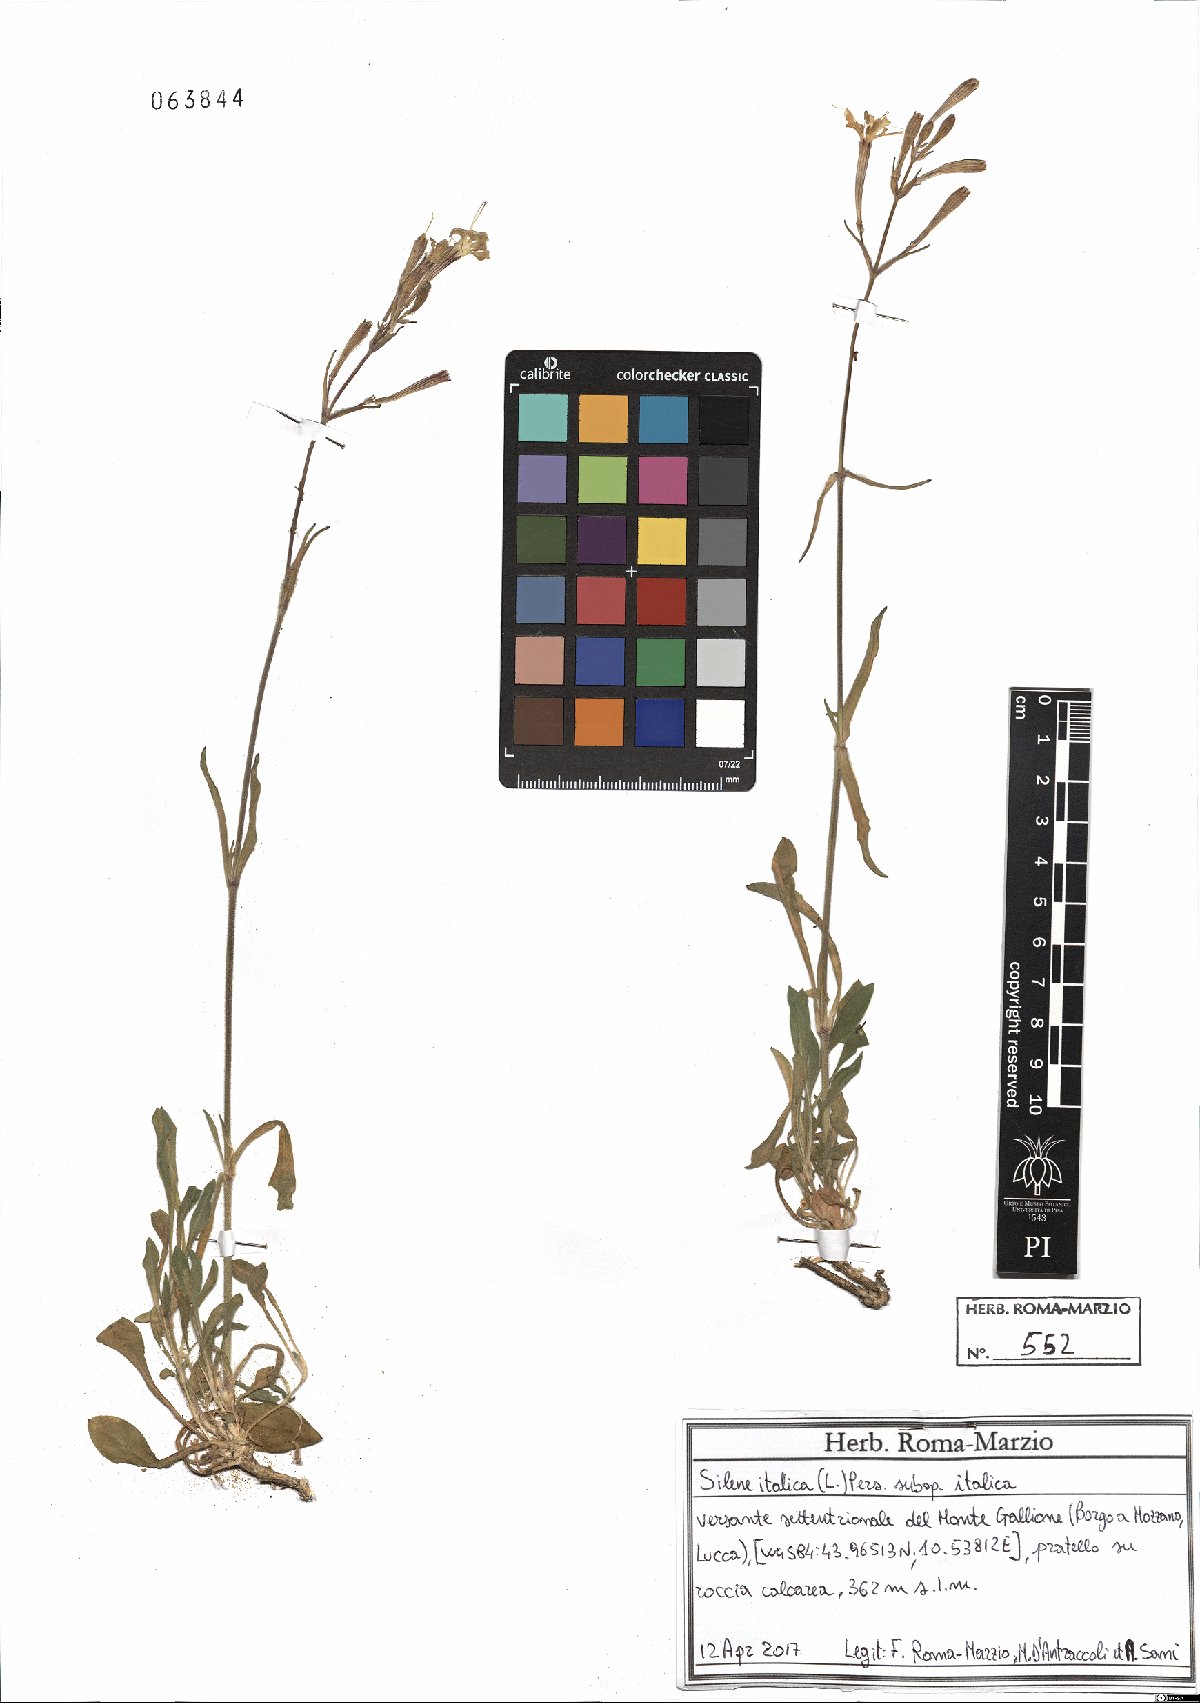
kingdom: Plantae
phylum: Tracheophyta
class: Magnoliopsida
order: Caryophyllales
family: Caryophyllaceae
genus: Silene
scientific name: Silene italica
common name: Italian catchfly
